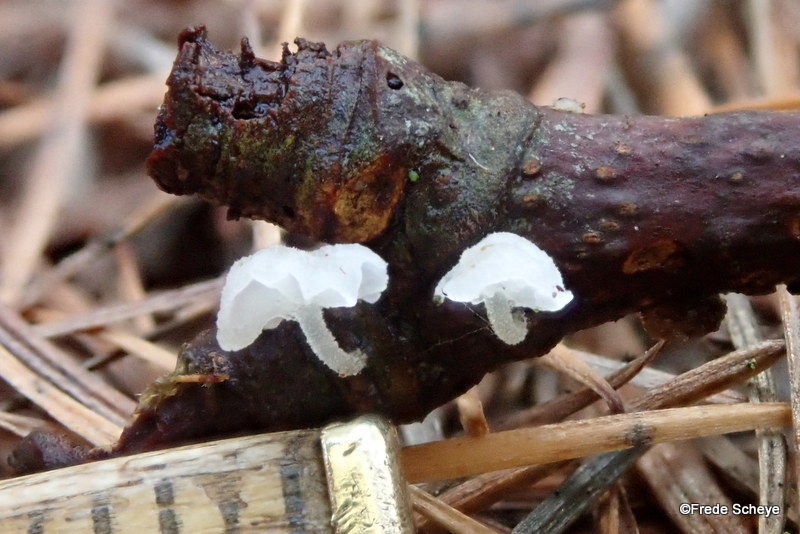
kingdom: Fungi
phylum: Basidiomycota
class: Agaricomycetes
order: Agaricales
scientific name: Agaricales
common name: champignonordenen
